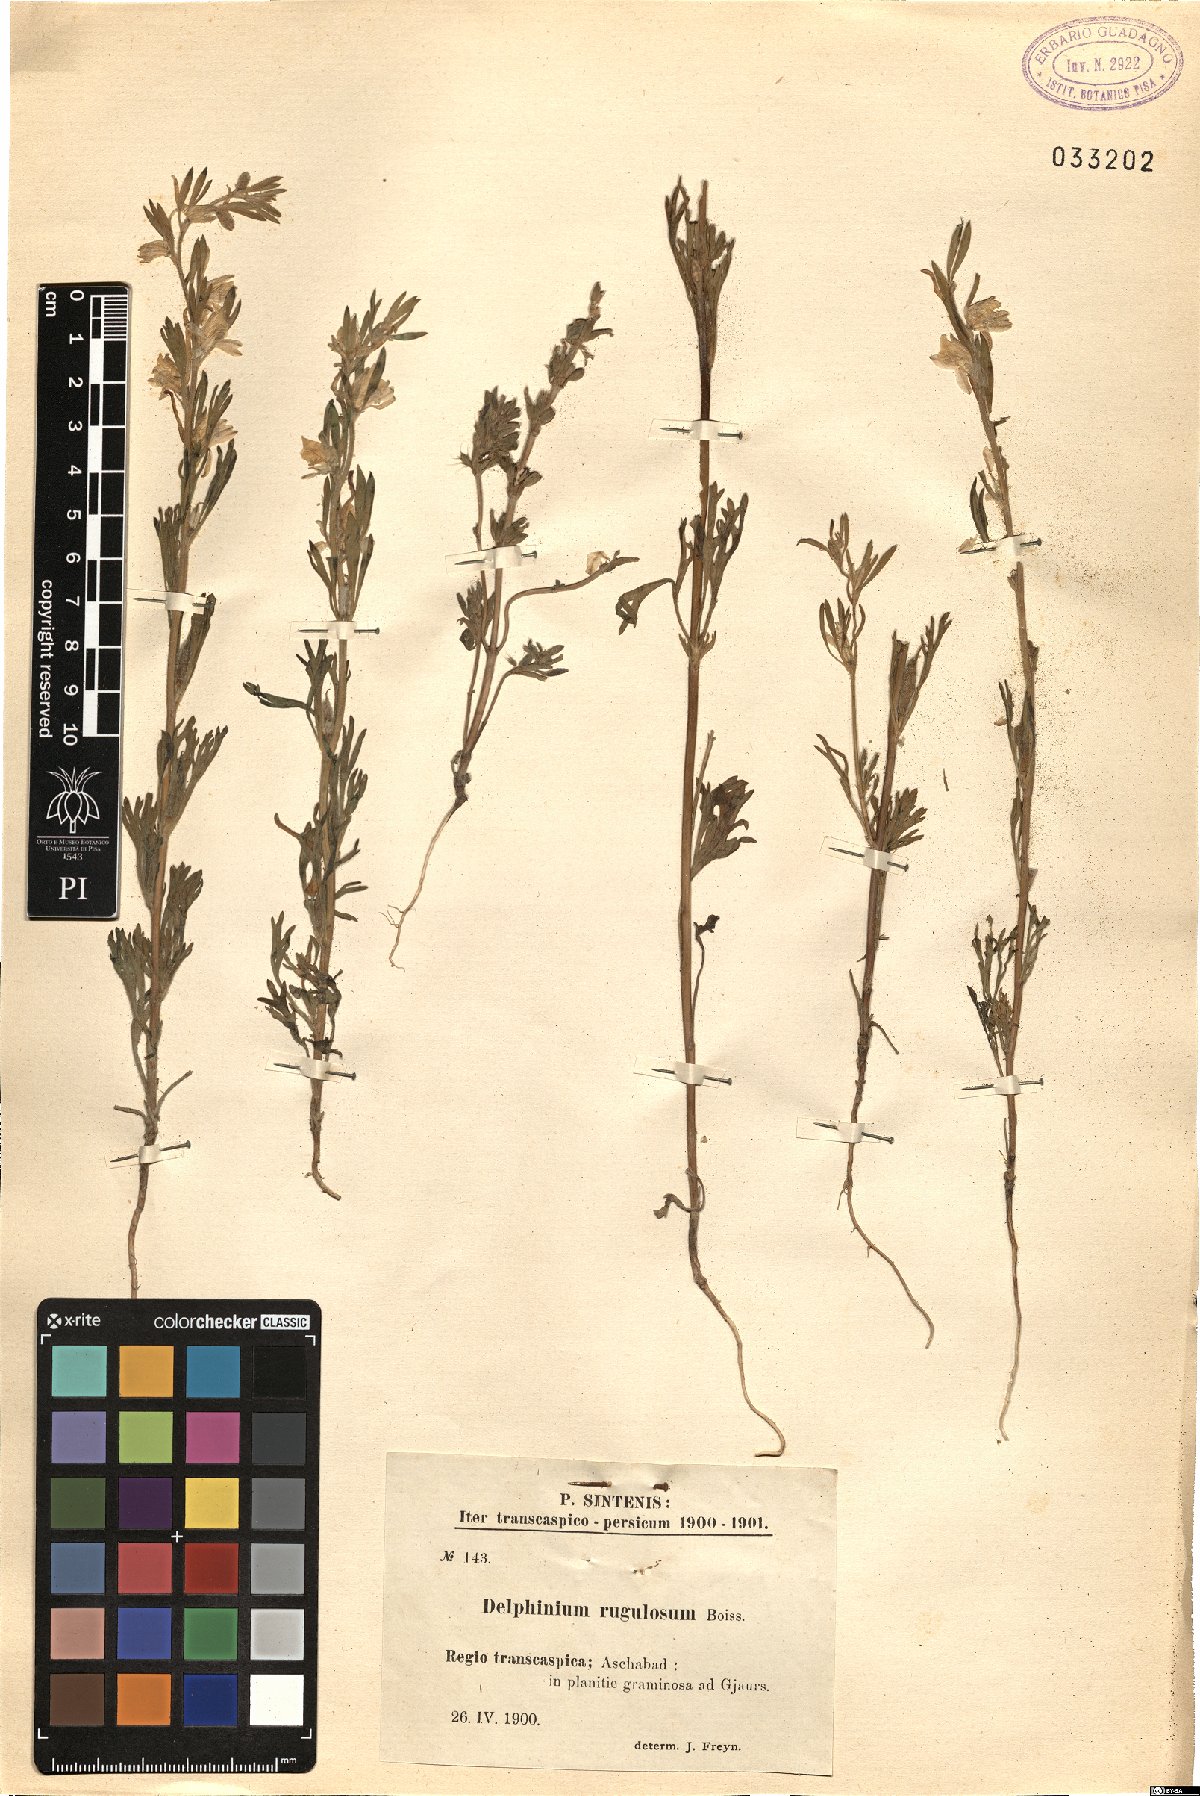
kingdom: Plantae
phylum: Tracheophyta
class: Magnoliopsida
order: Ranunculales
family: Ranunculaceae
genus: Delphinium
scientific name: Delphinium rugulosum
